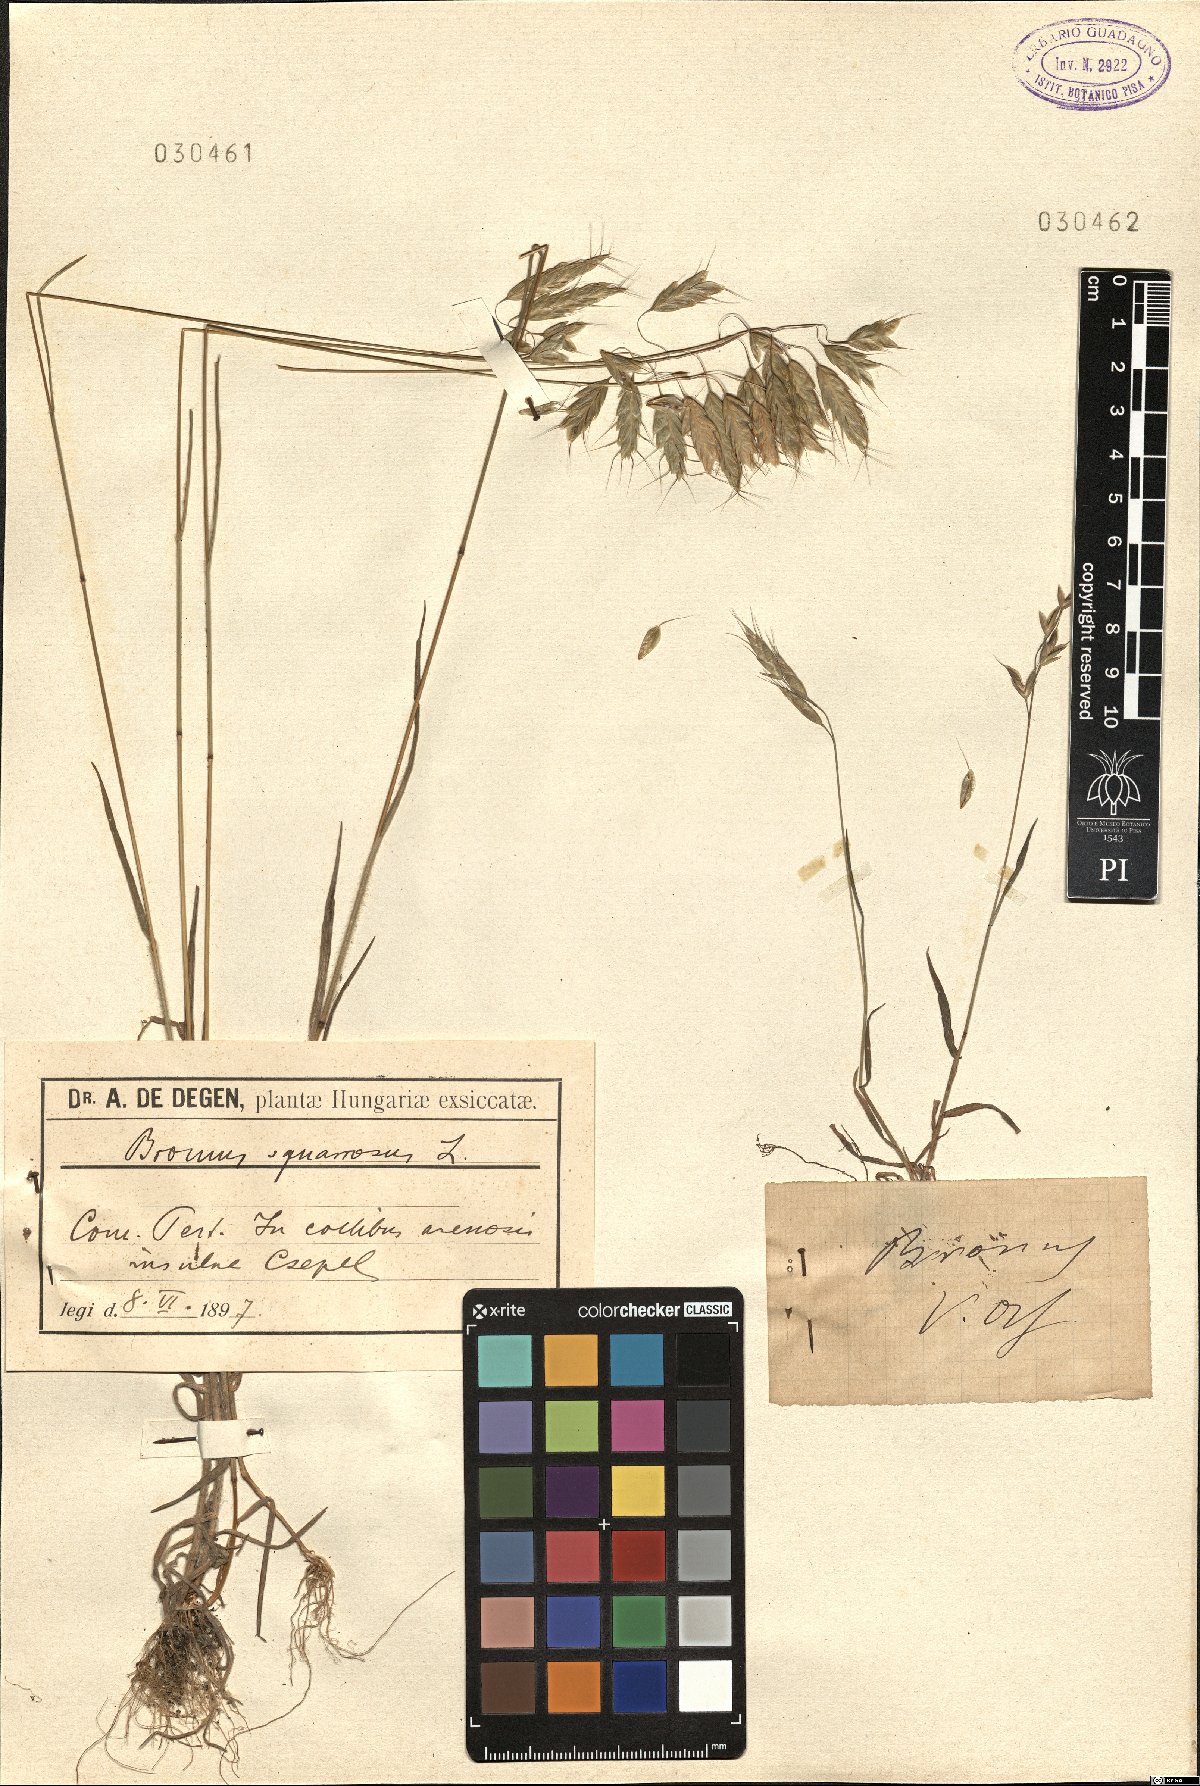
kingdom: Plantae
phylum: Tracheophyta
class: Liliopsida
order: Poales
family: Poaceae
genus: Bromus
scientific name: Bromus squarrosus
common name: Corn brome
